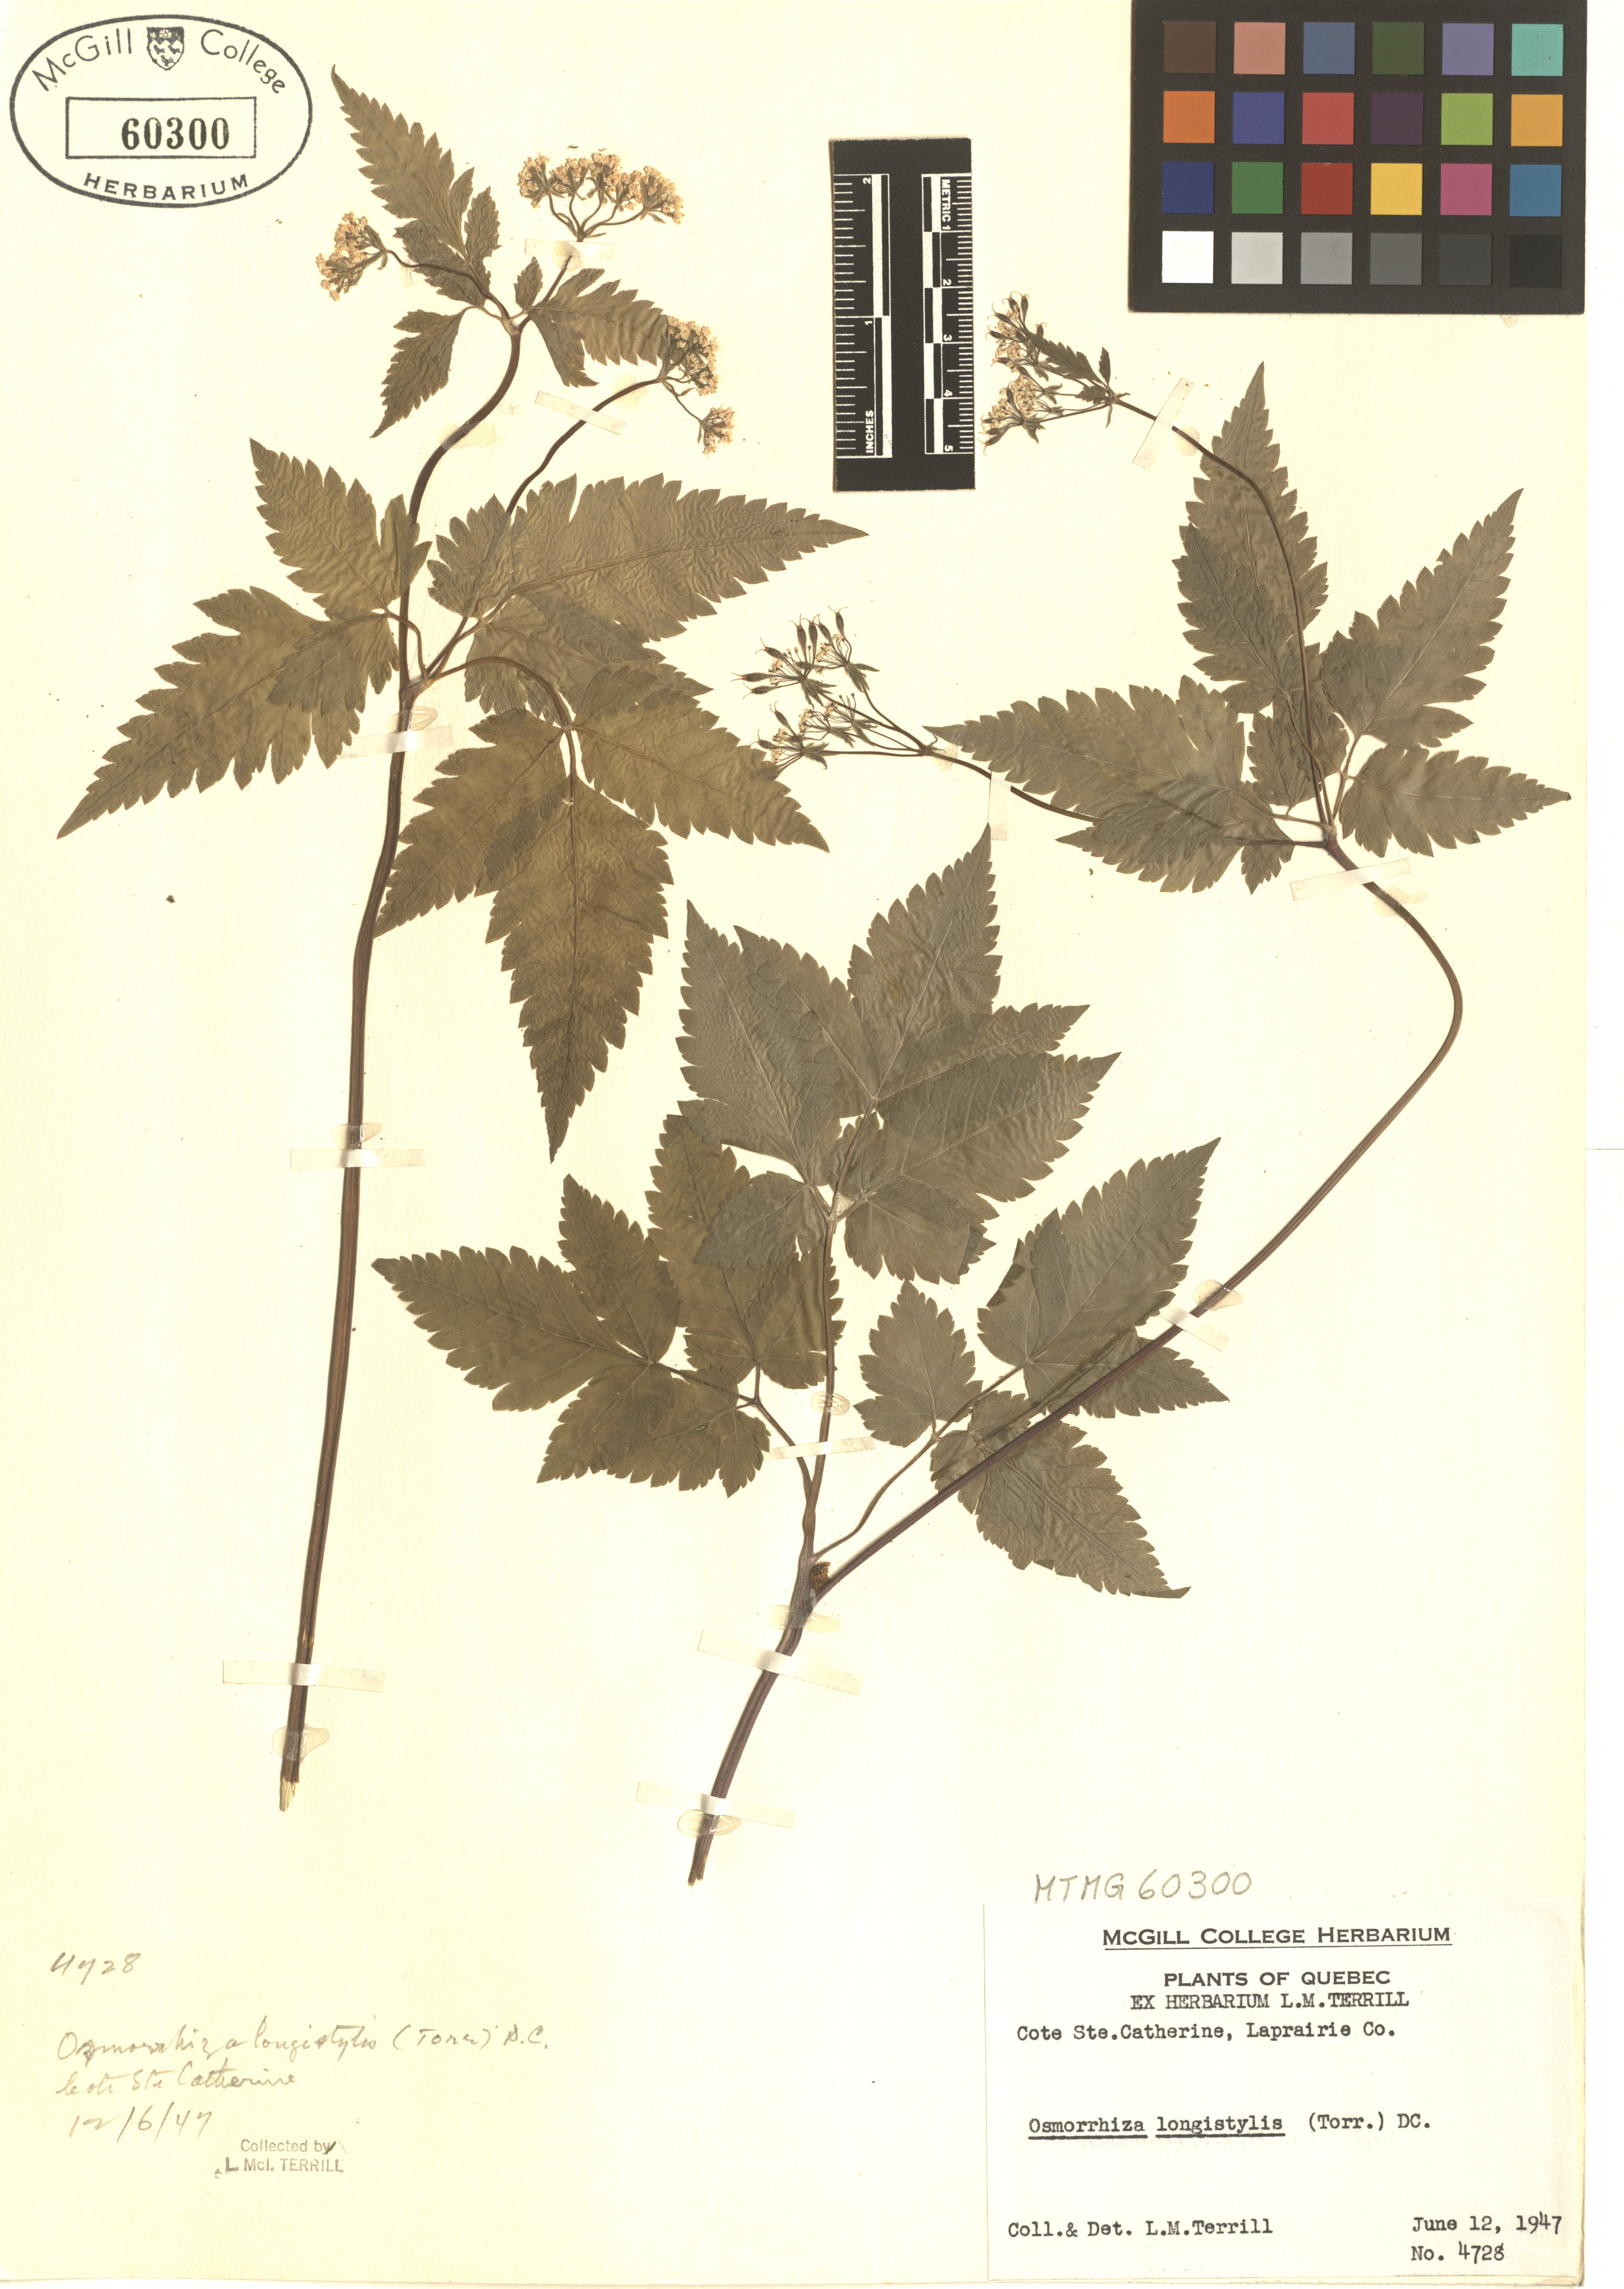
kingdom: Plantae
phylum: Tracheophyta
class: Magnoliopsida
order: Apiales
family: Apiaceae
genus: Osmorhiza
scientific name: Osmorhiza longistylis
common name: Smooth sweet cicely
